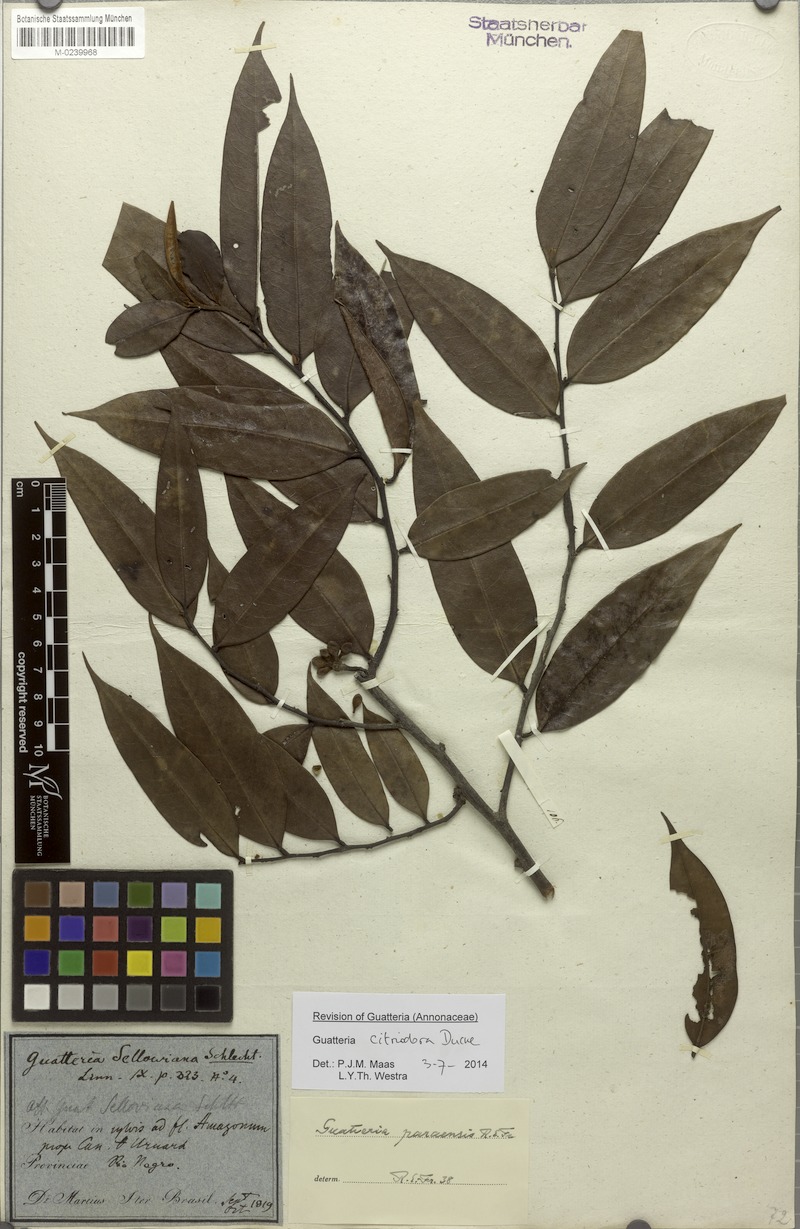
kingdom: Plantae
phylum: Tracheophyta
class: Magnoliopsida
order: Magnoliales
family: Annonaceae
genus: Guatteria
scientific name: Guatteria citriodora
